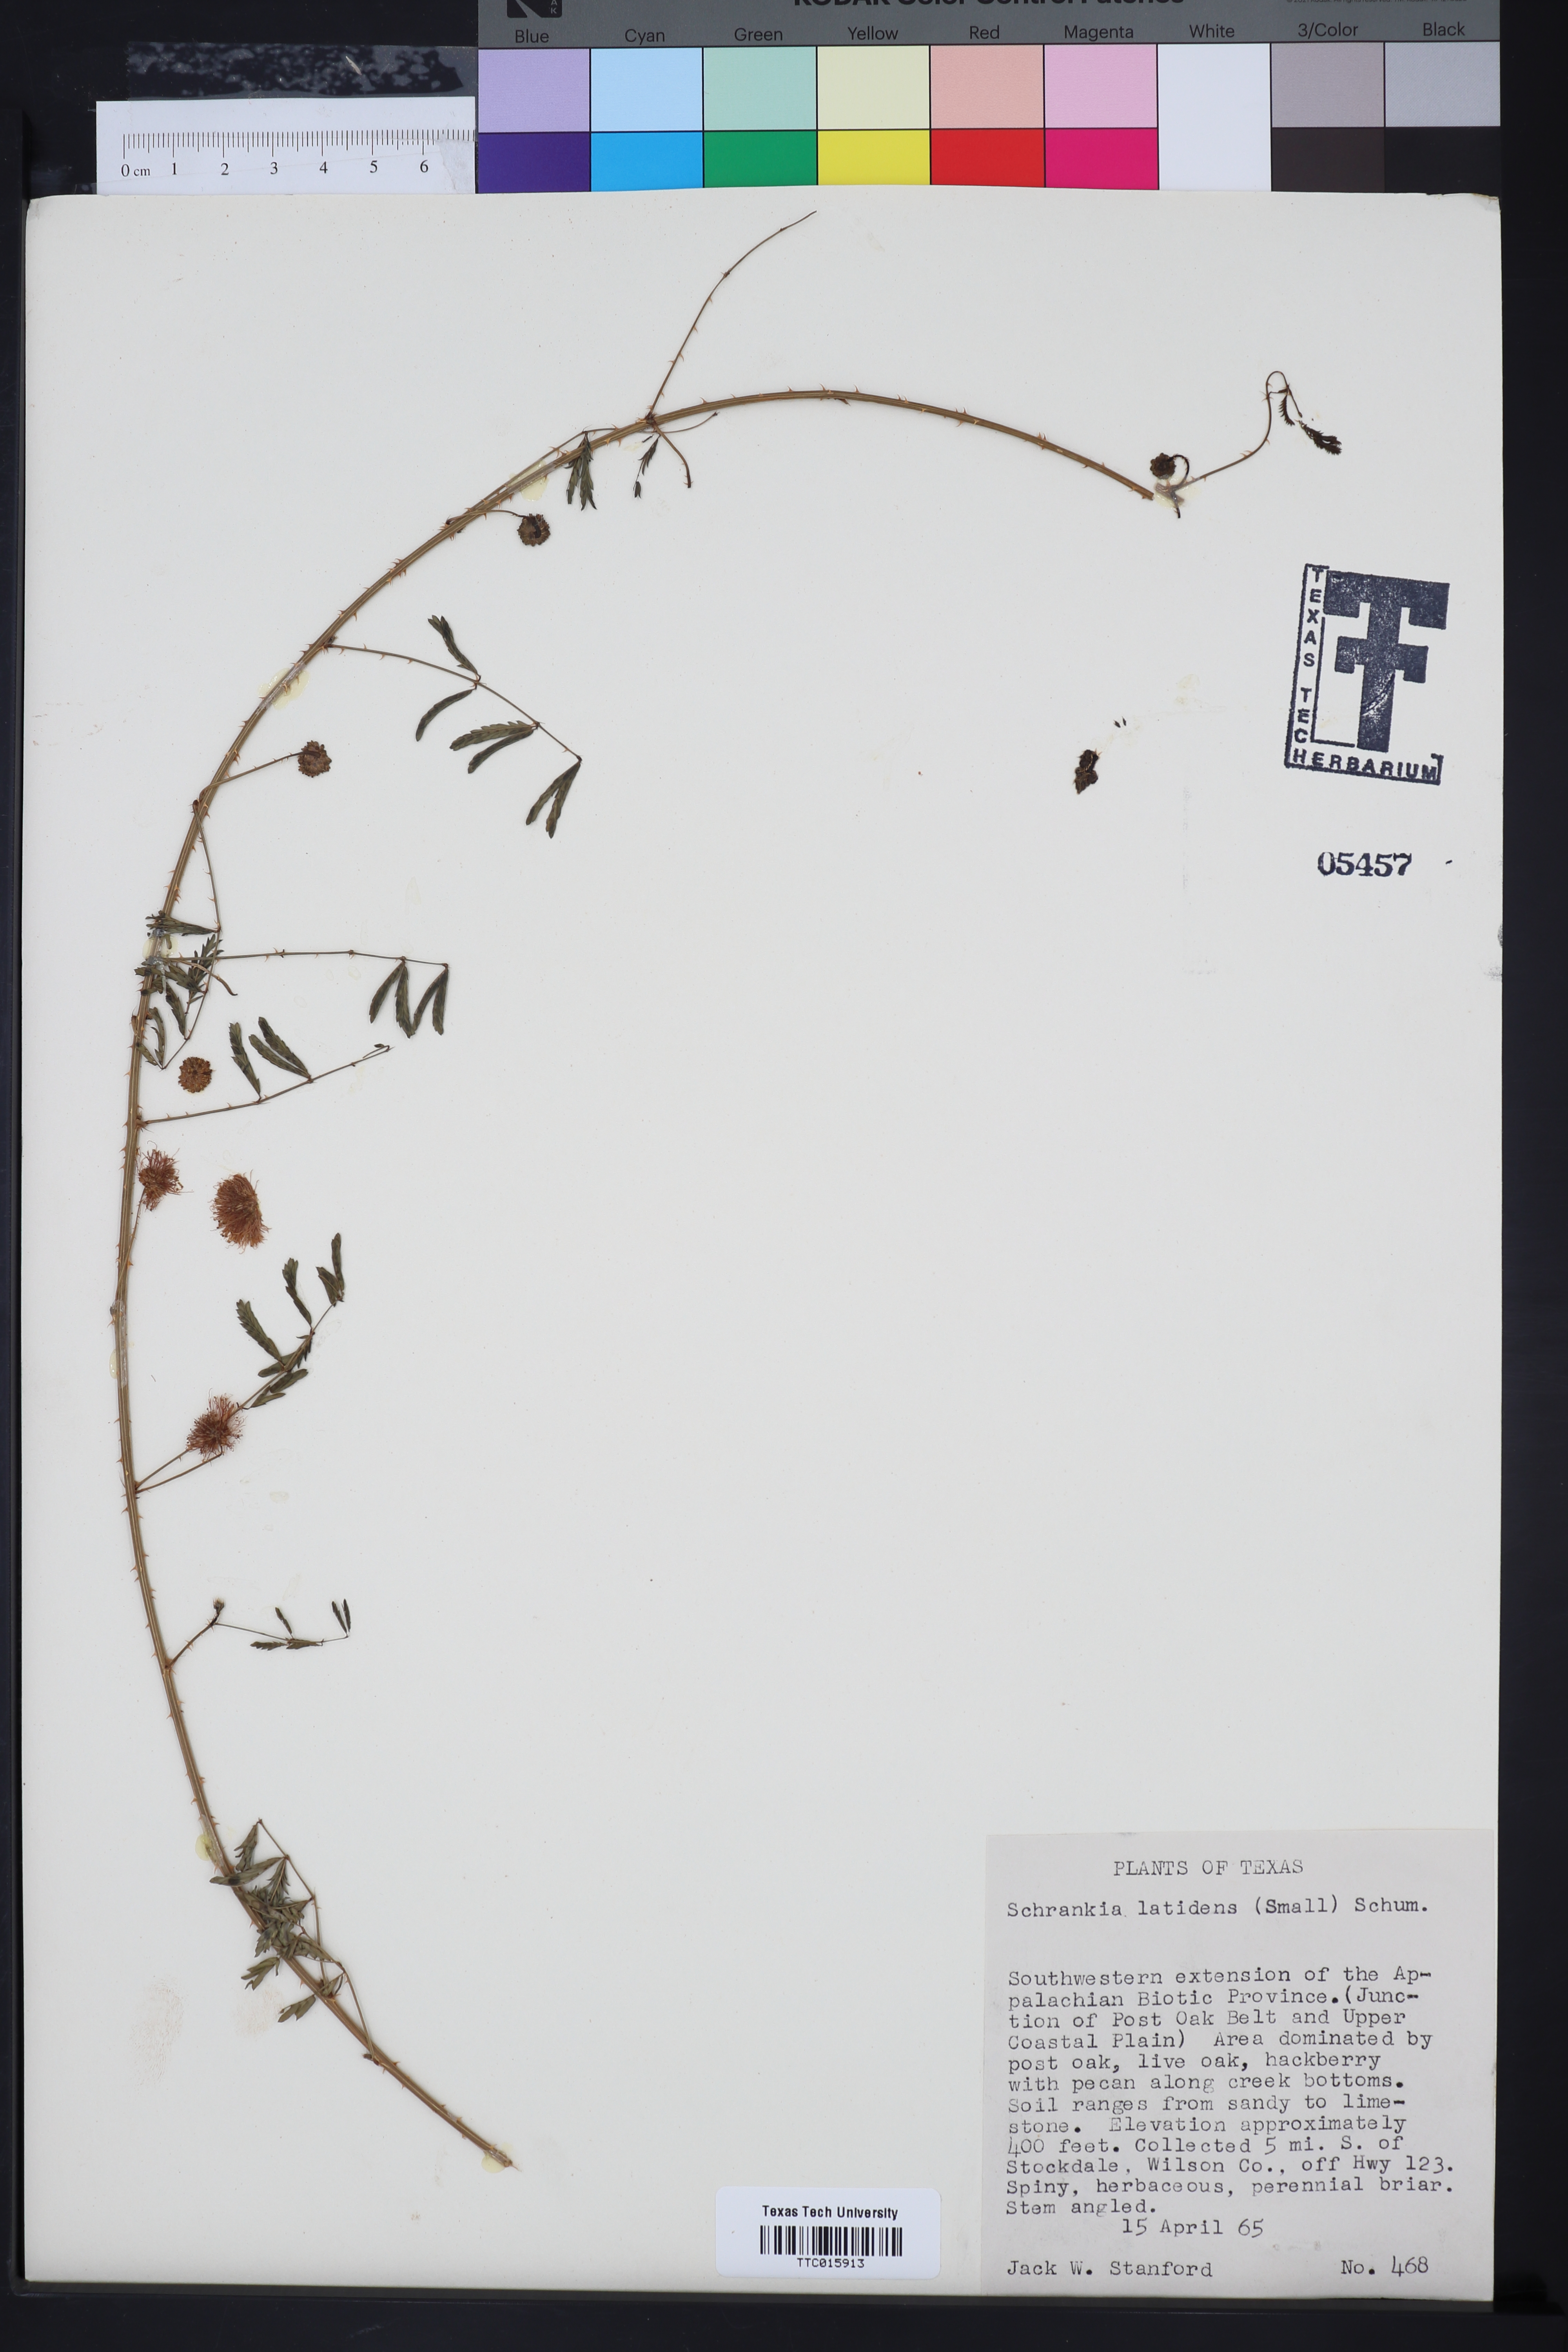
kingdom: Plantae
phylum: Tracheophyta
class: Magnoliopsida
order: Fabales
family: Fabaceae
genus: Mimosa
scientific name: Mimosa quadrivalvis
